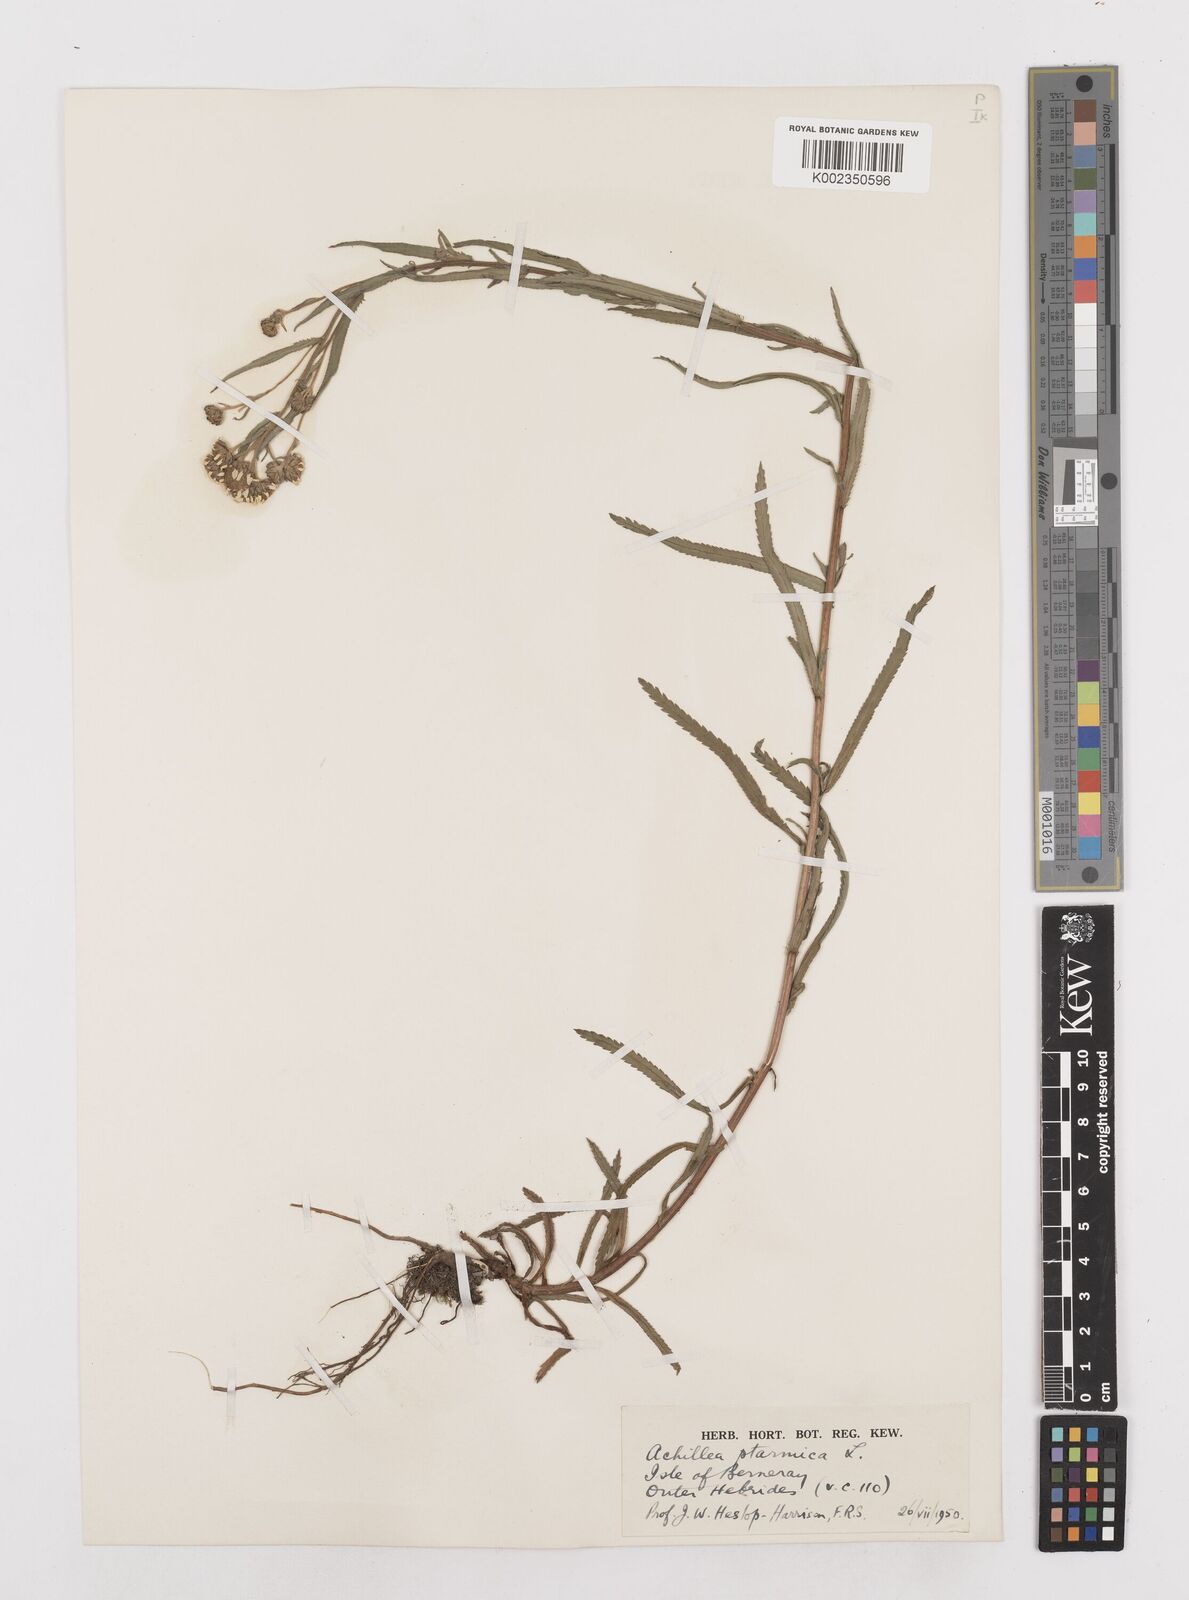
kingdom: Plantae
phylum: Tracheophyta
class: Magnoliopsida
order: Asterales
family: Asteraceae
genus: Achillea
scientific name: Achillea ptarmica
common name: Sneezeweed
